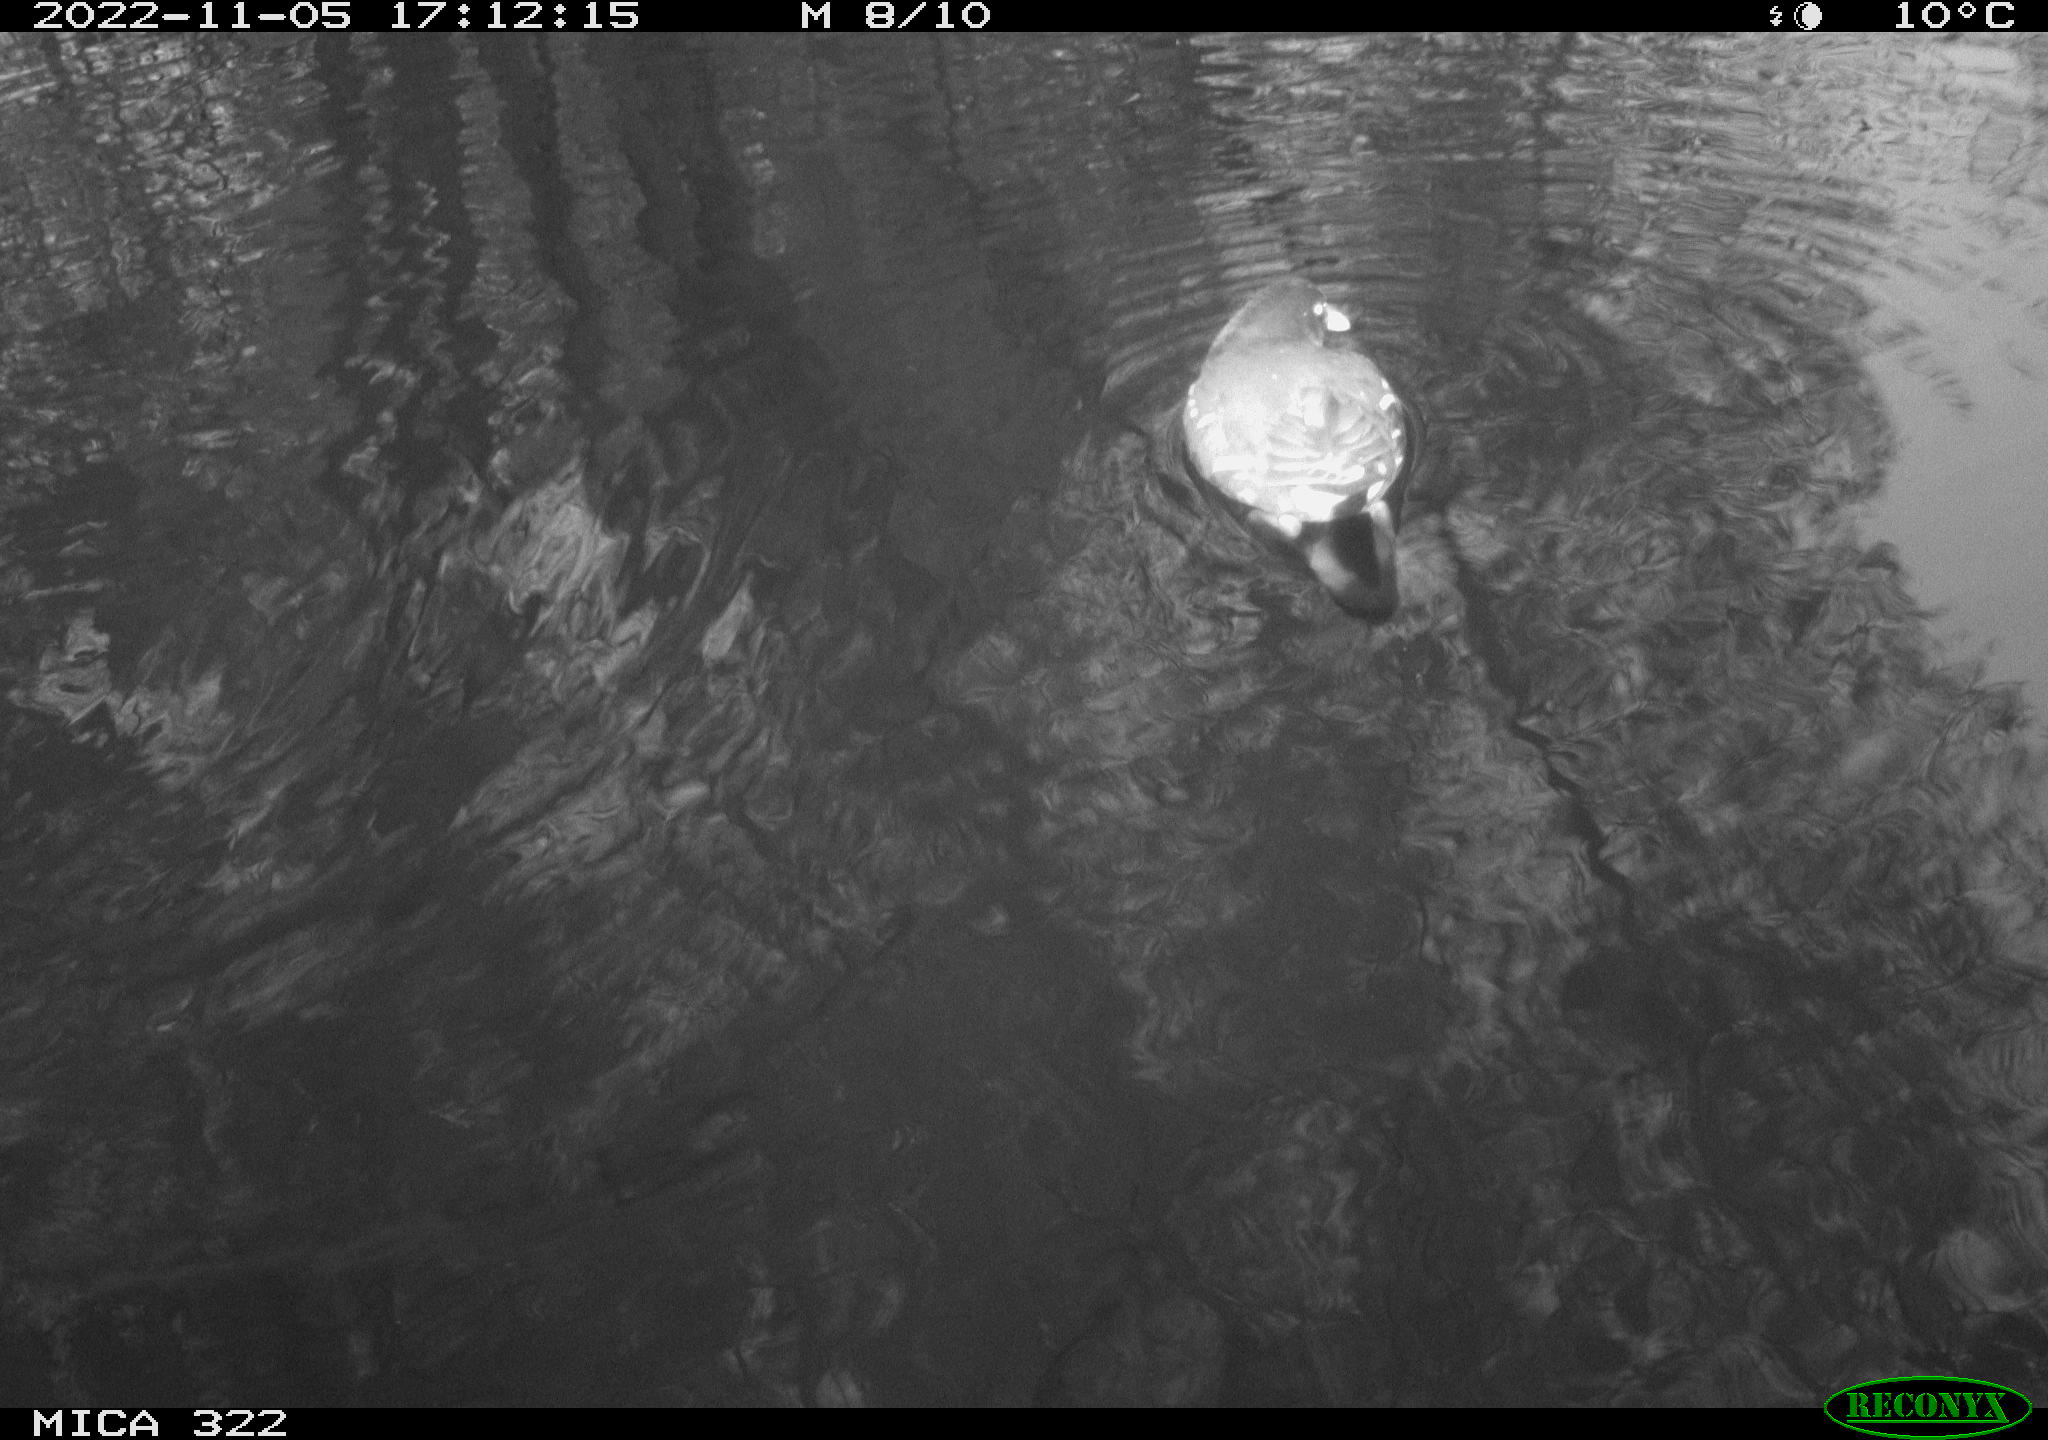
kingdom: Animalia
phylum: Chordata
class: Aves
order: Gruiformes
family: Rallidae
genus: Gallinula
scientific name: Gallinula chloropus
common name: Common moorhen
